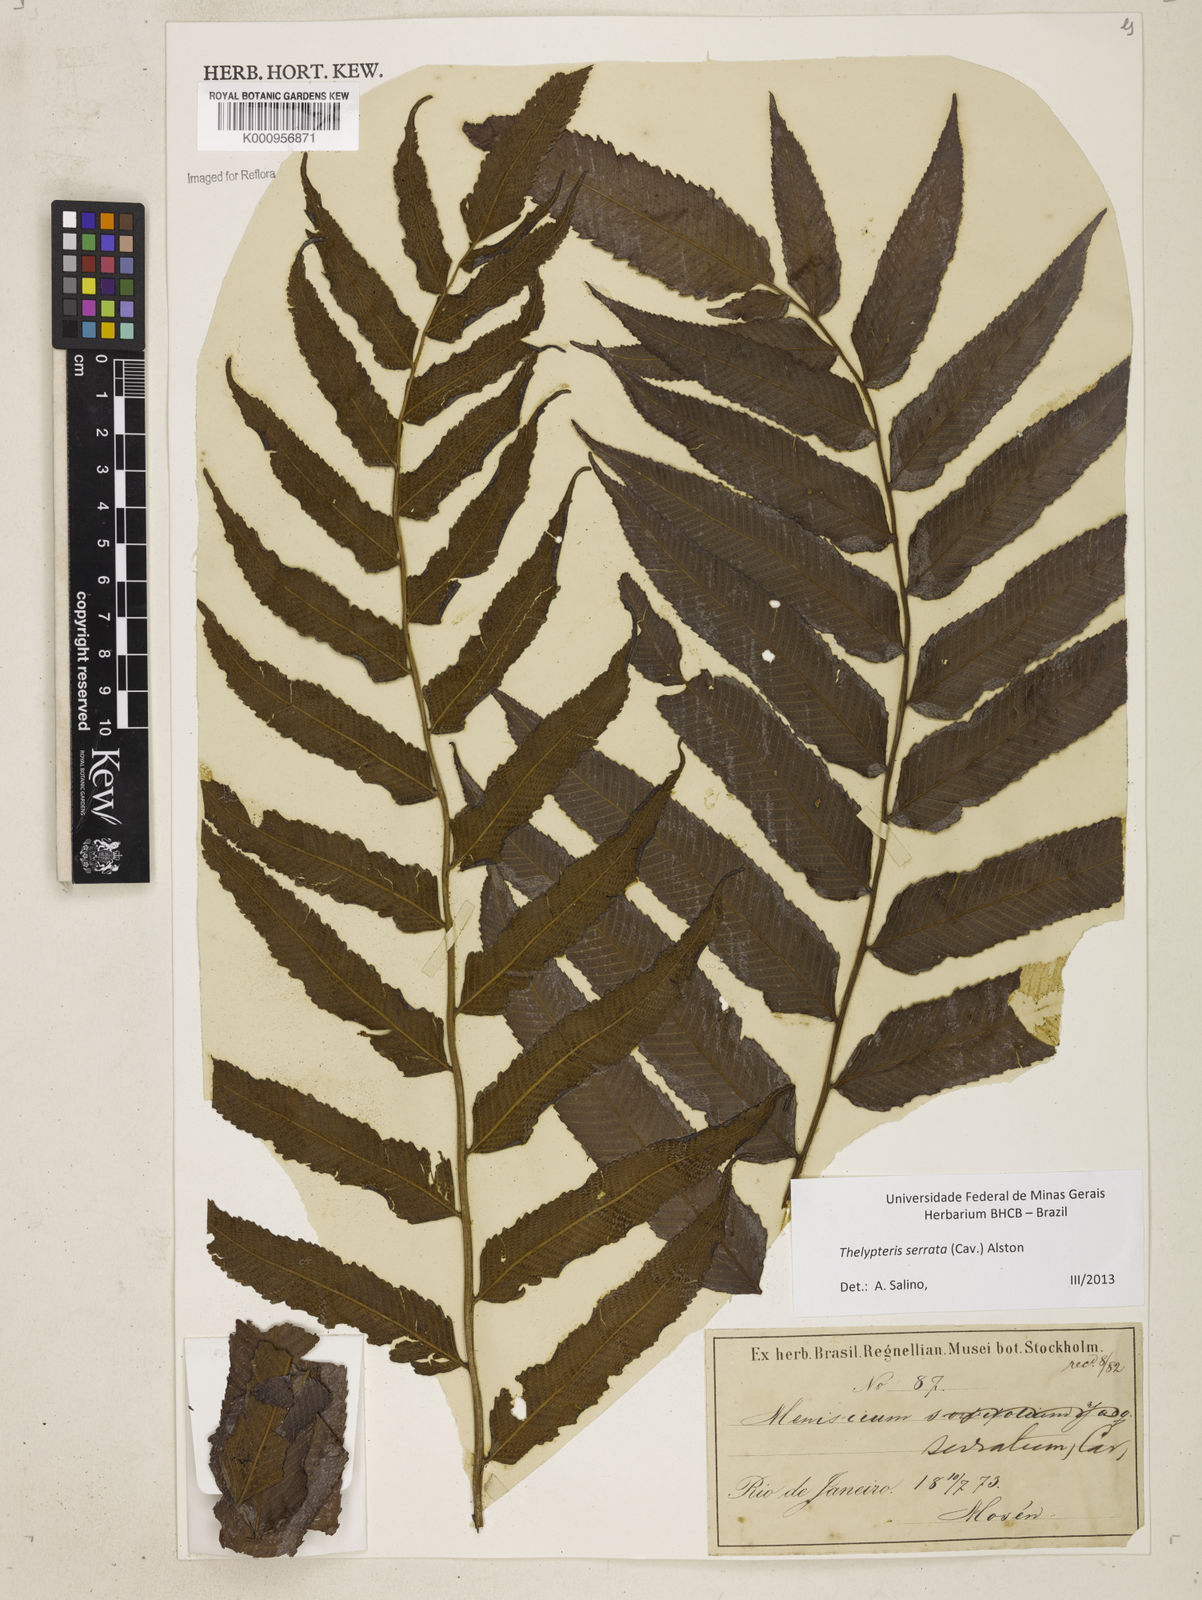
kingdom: Plantae
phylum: Tracheophyta
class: Polypodiopsida
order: Polypodiales
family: Thelypteridaceae
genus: Meniscium
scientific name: Meniscium serratum
